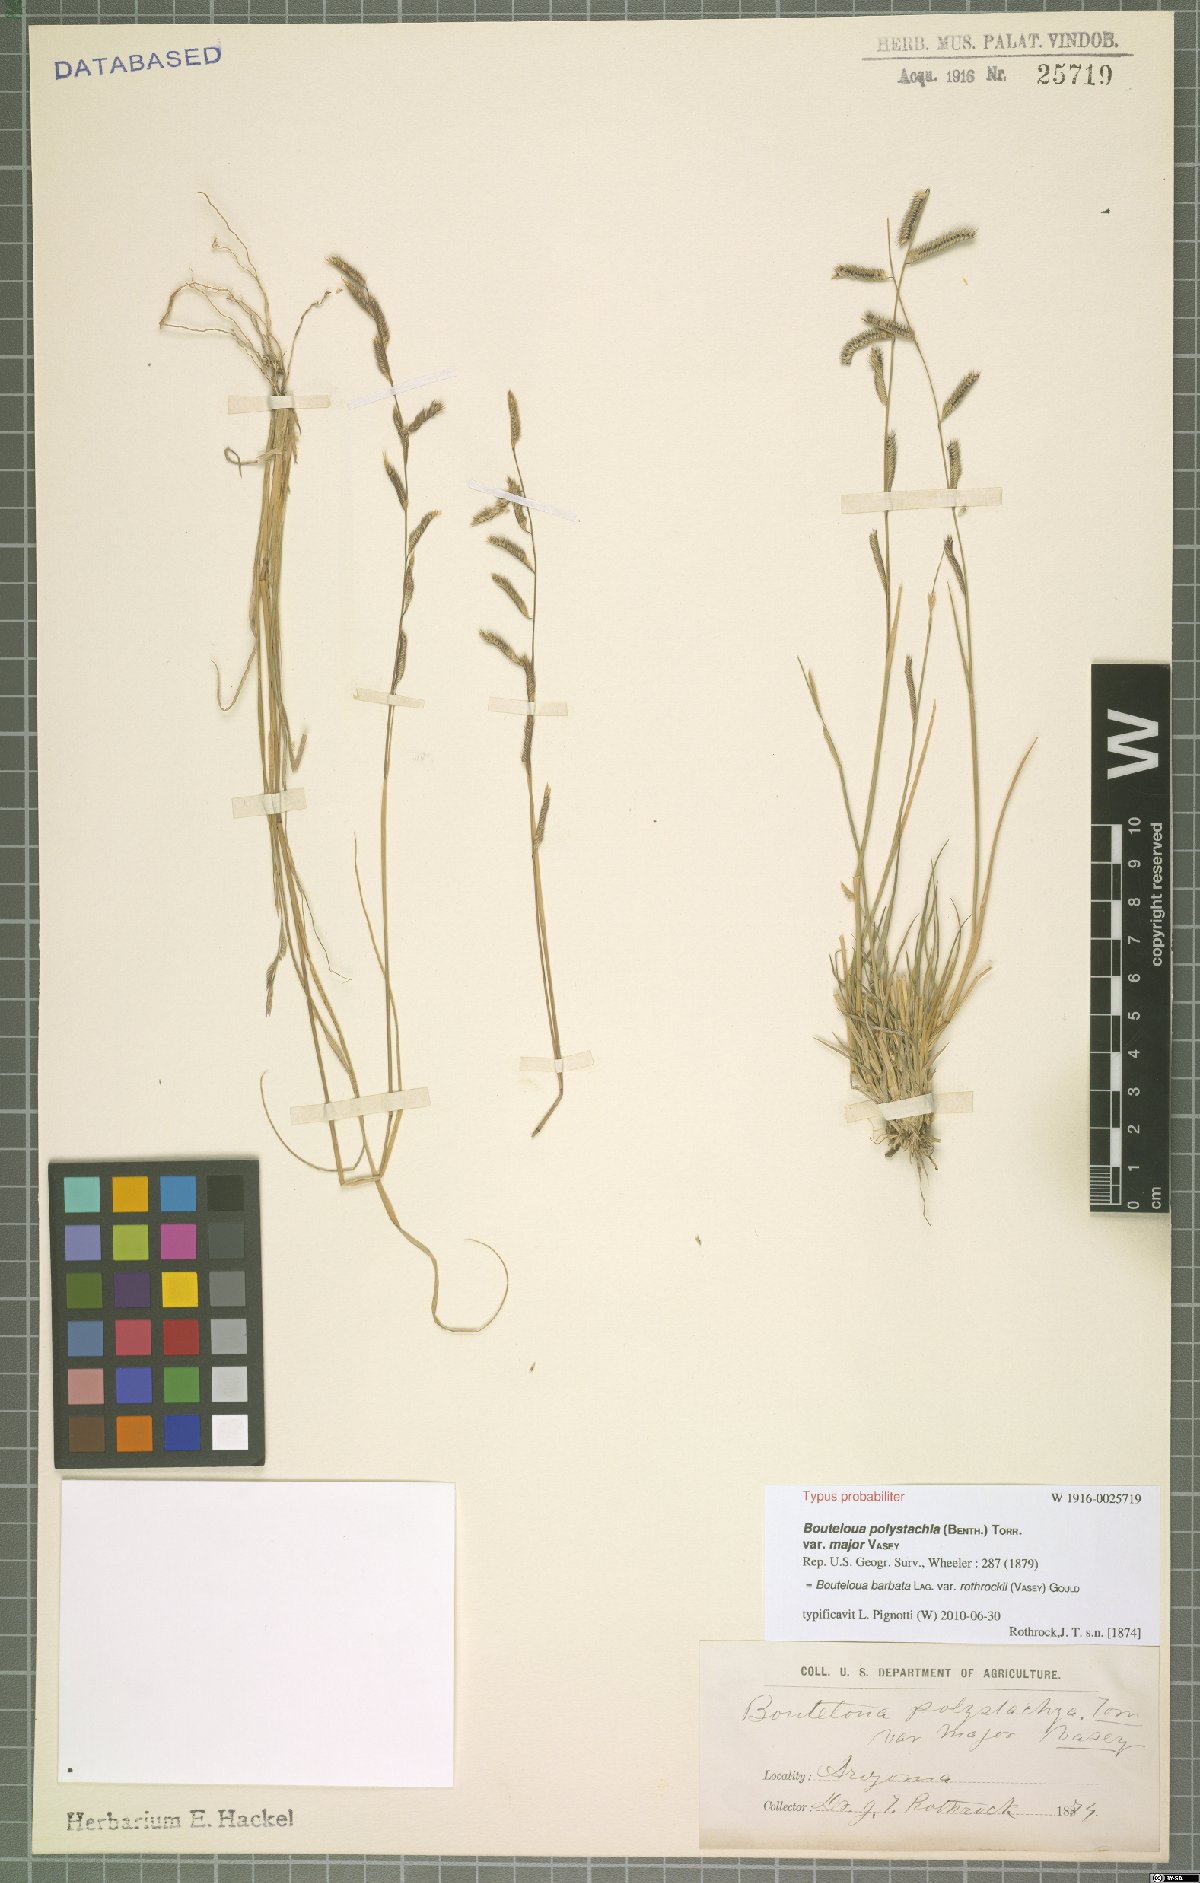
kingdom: Plantae
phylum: Tracheophyta
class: Liliopsida
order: Poales
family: Poaceae
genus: Bouteloua
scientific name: Bouteloua barbata
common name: Six-weeks grama
